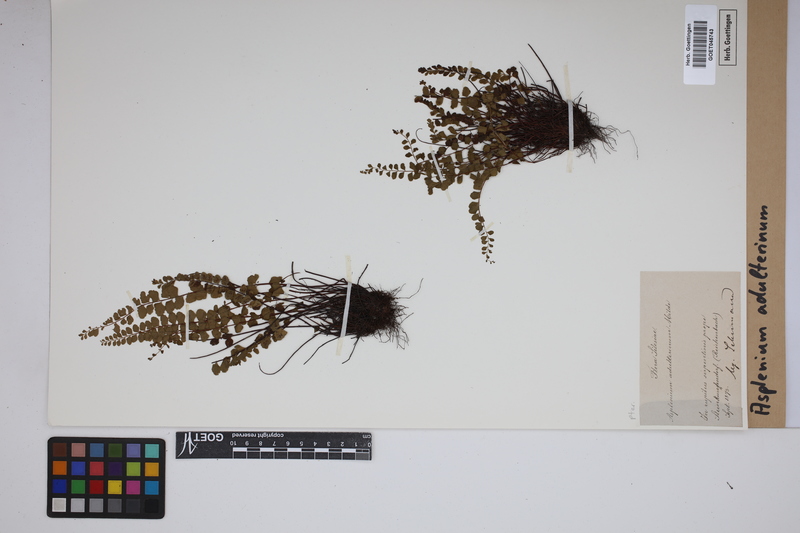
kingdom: Plantae
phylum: Tracheophyta
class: Polypodiopsida
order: Polypodiales
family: Aspleniaceae
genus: Asplenium
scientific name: Asplenium adulterinum
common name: Adulterated spleenwort
